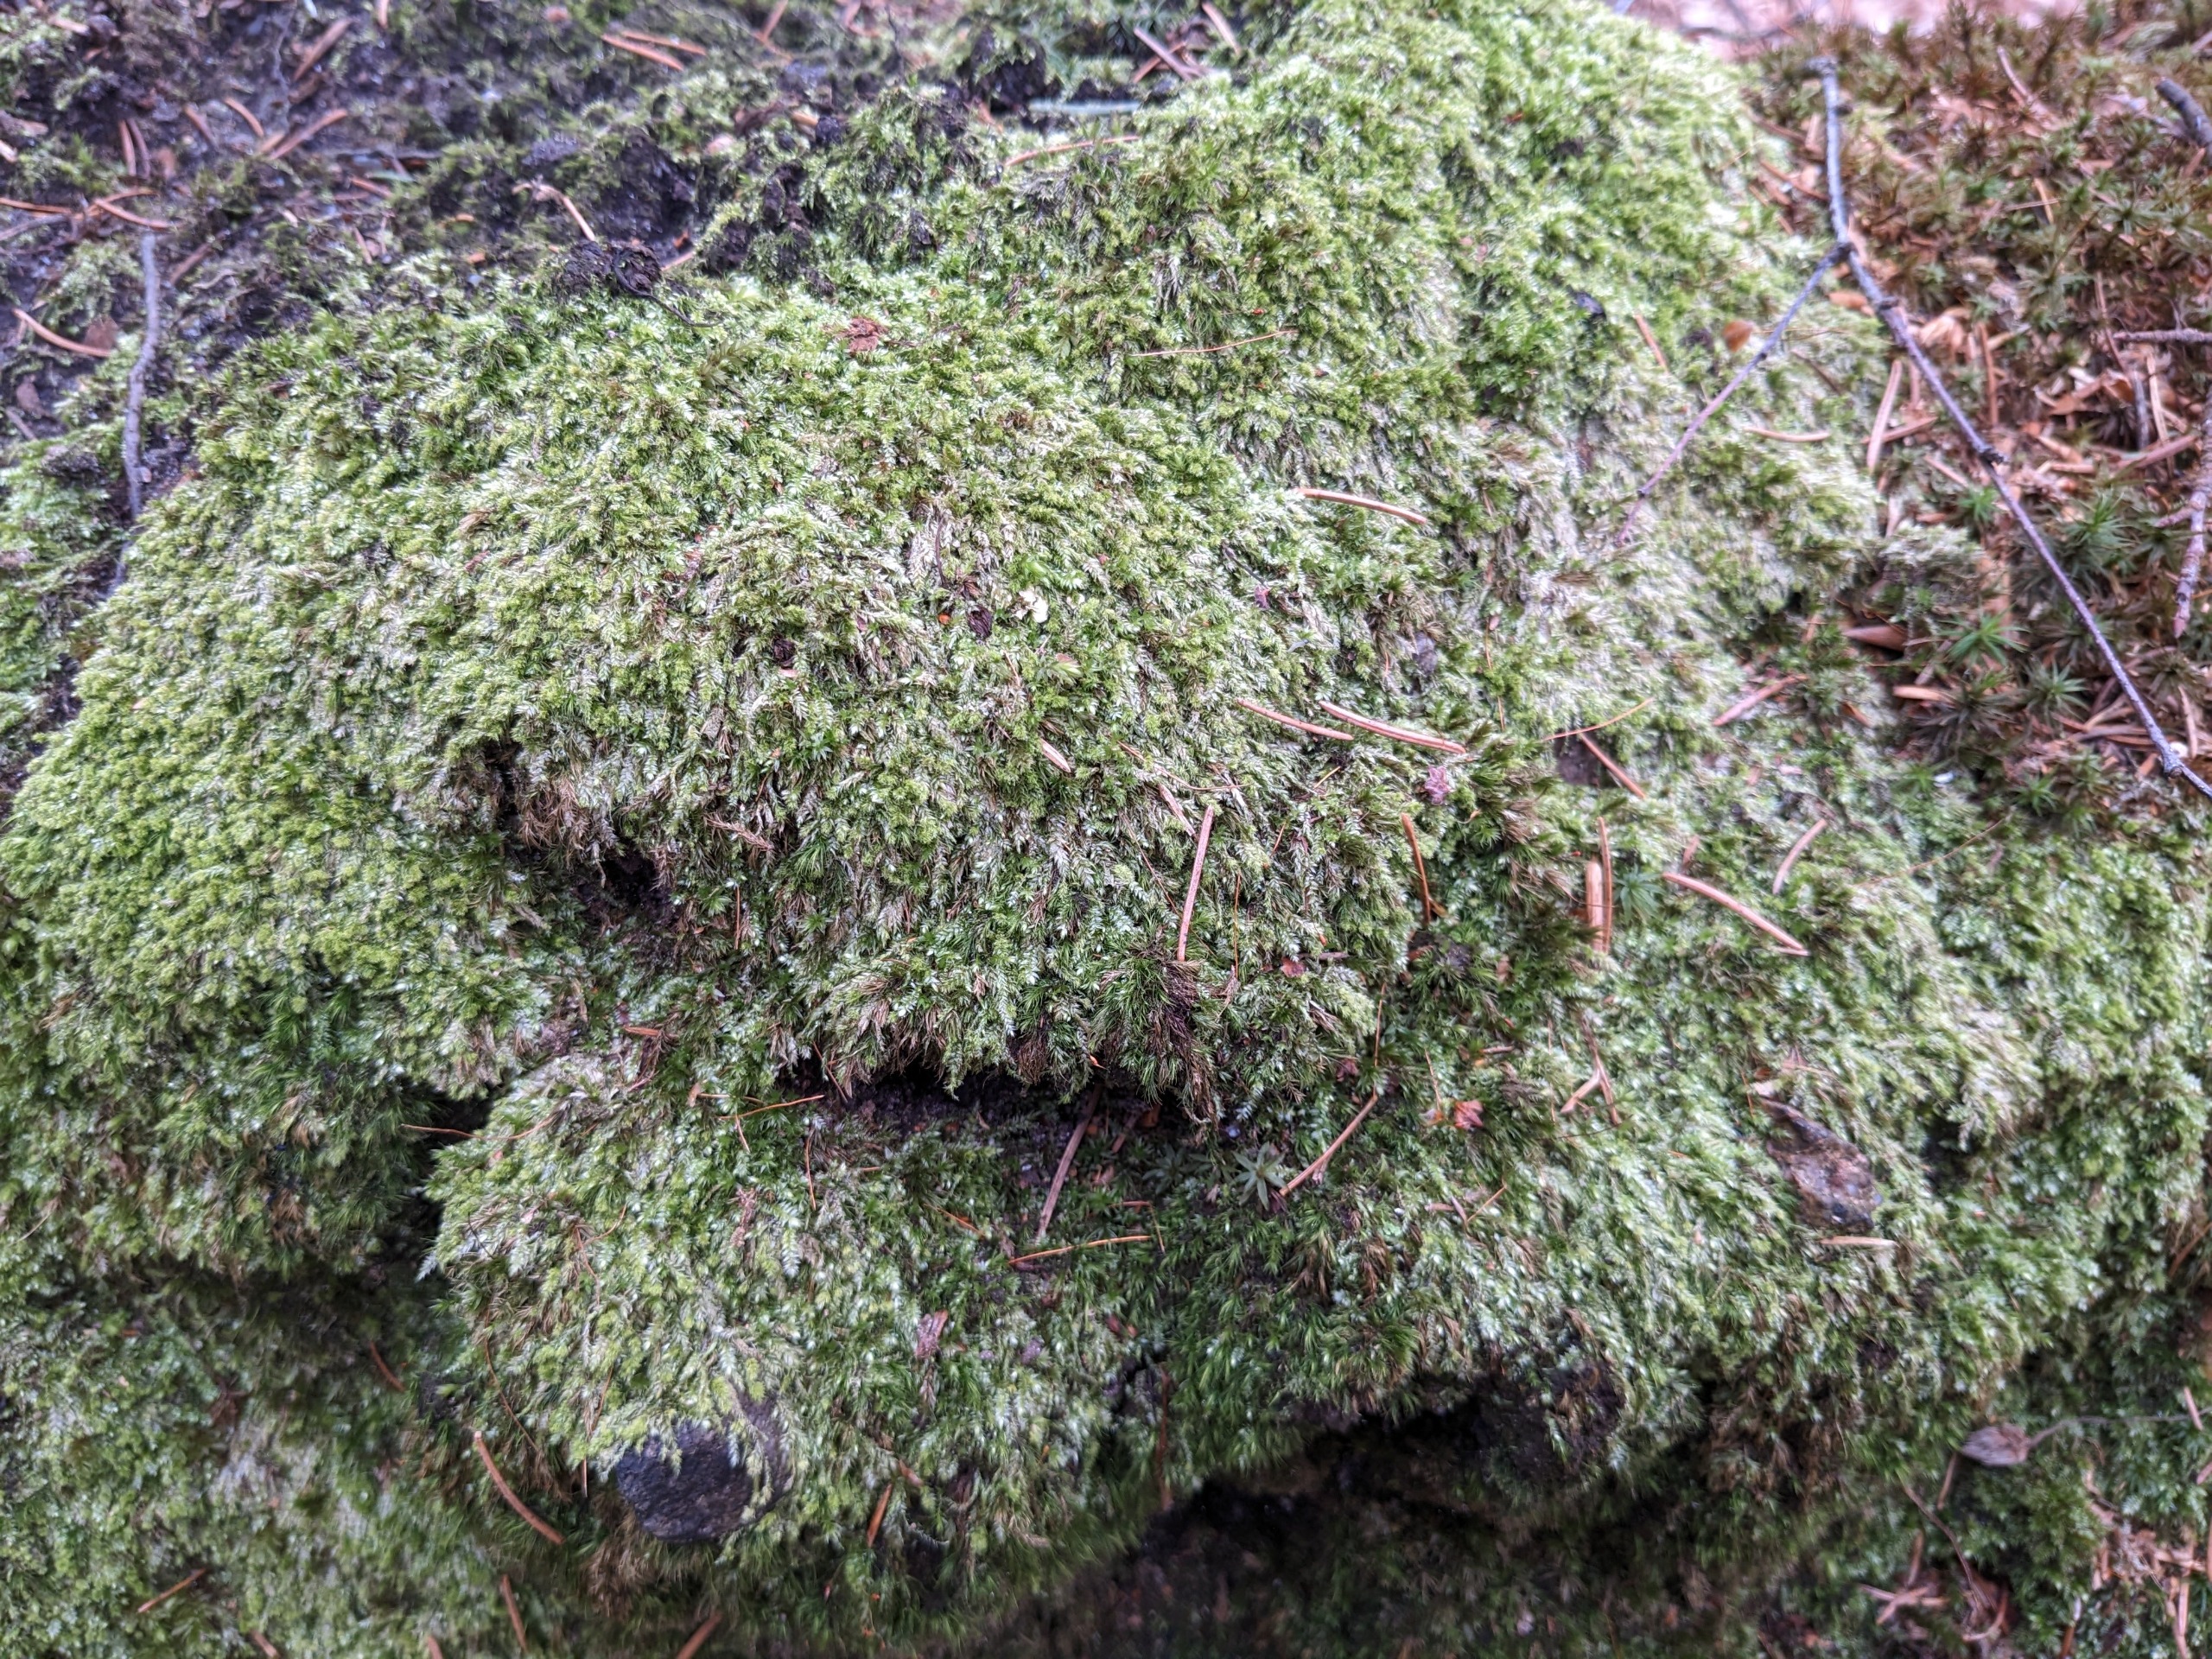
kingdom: Plantae
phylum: Bryophyta
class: Bryopsida
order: Hypnales
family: Plagiotheciaceae
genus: Pseudotaxiphyllum
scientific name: Pseudotaxiphyllum elegans
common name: Skinnende ynglegren
